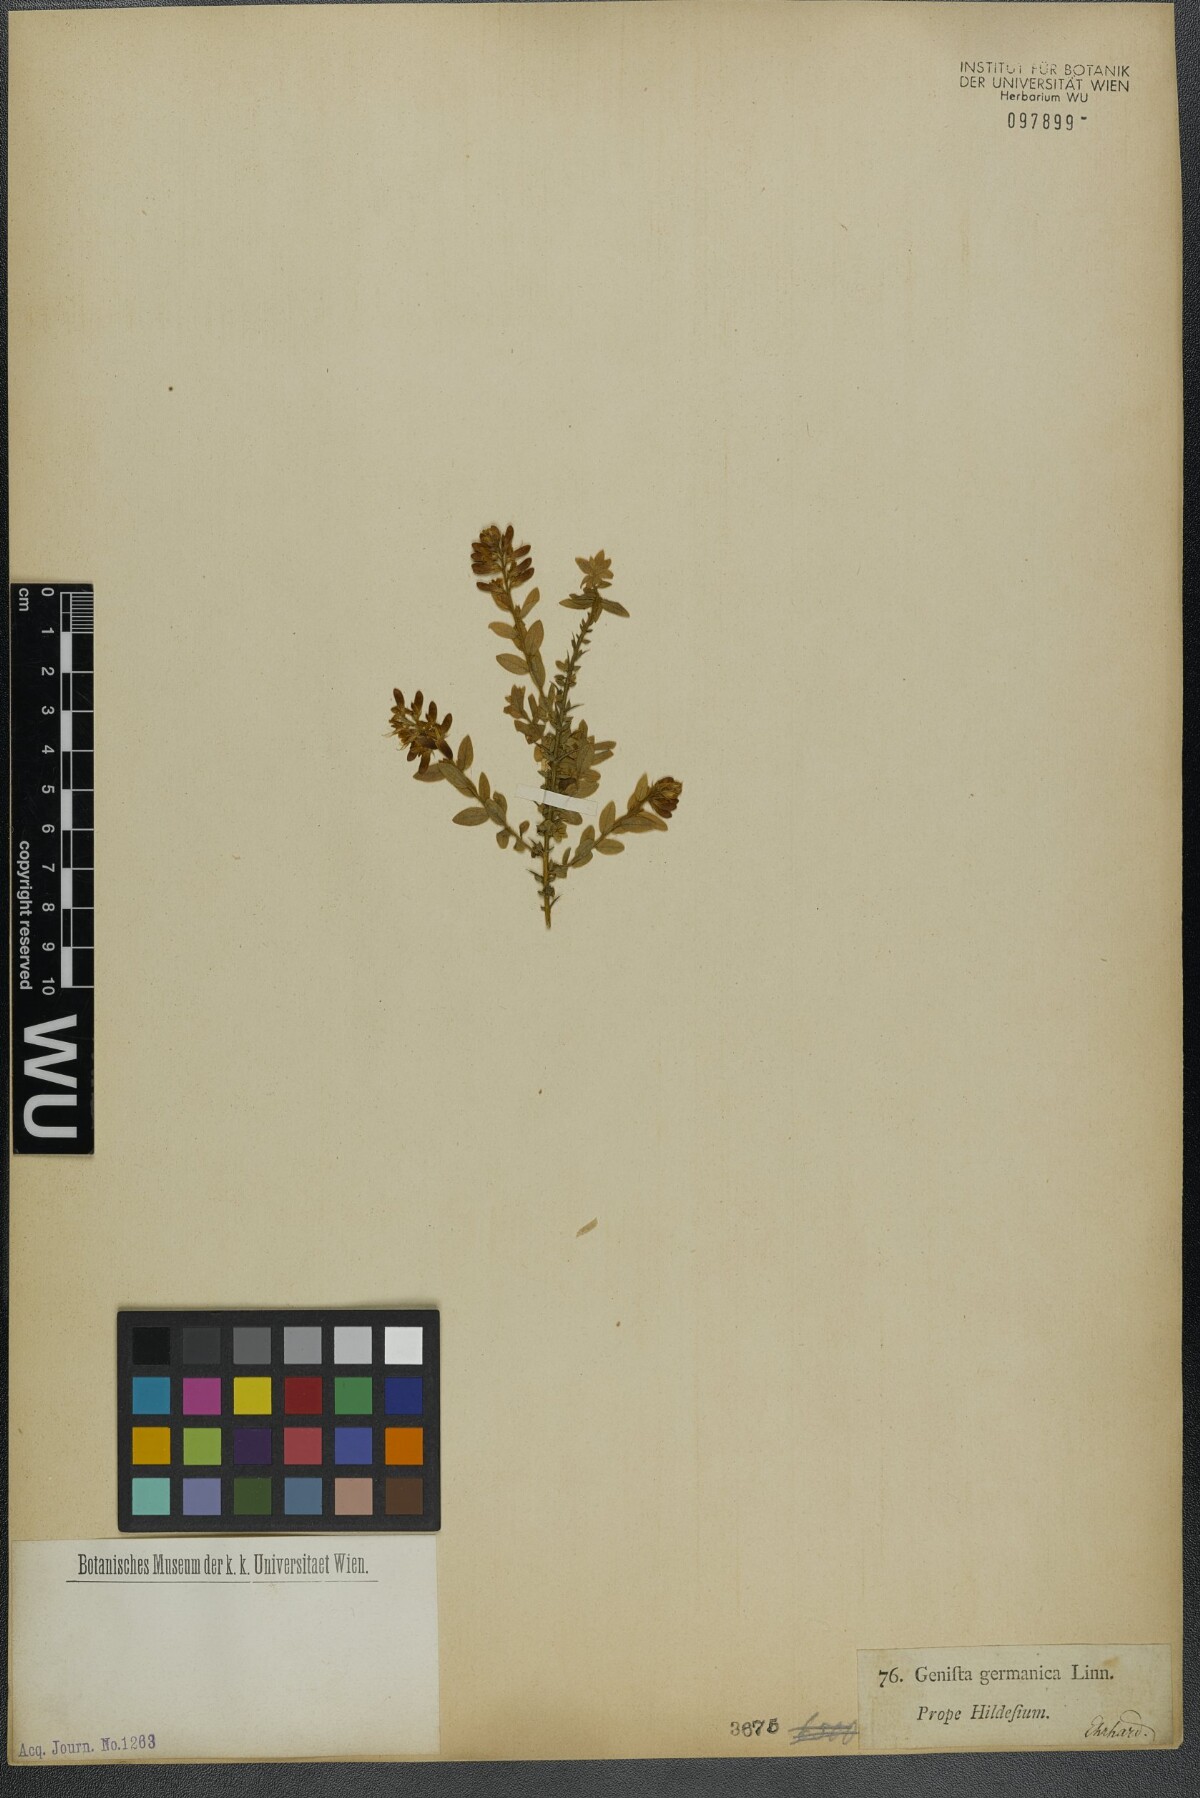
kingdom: Plantae
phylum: Tracheophyta
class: Magnoliopsida
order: Fabales
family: Fabaceae
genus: Genista
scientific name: Genista germanica
